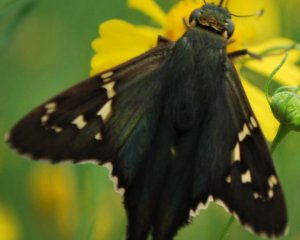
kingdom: Animalia
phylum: Arthropoda
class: Insecta
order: Lepidoptera
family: Hesperiidae
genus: Urbanus
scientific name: Urbanus proteus
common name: Long-tailed Skipper
